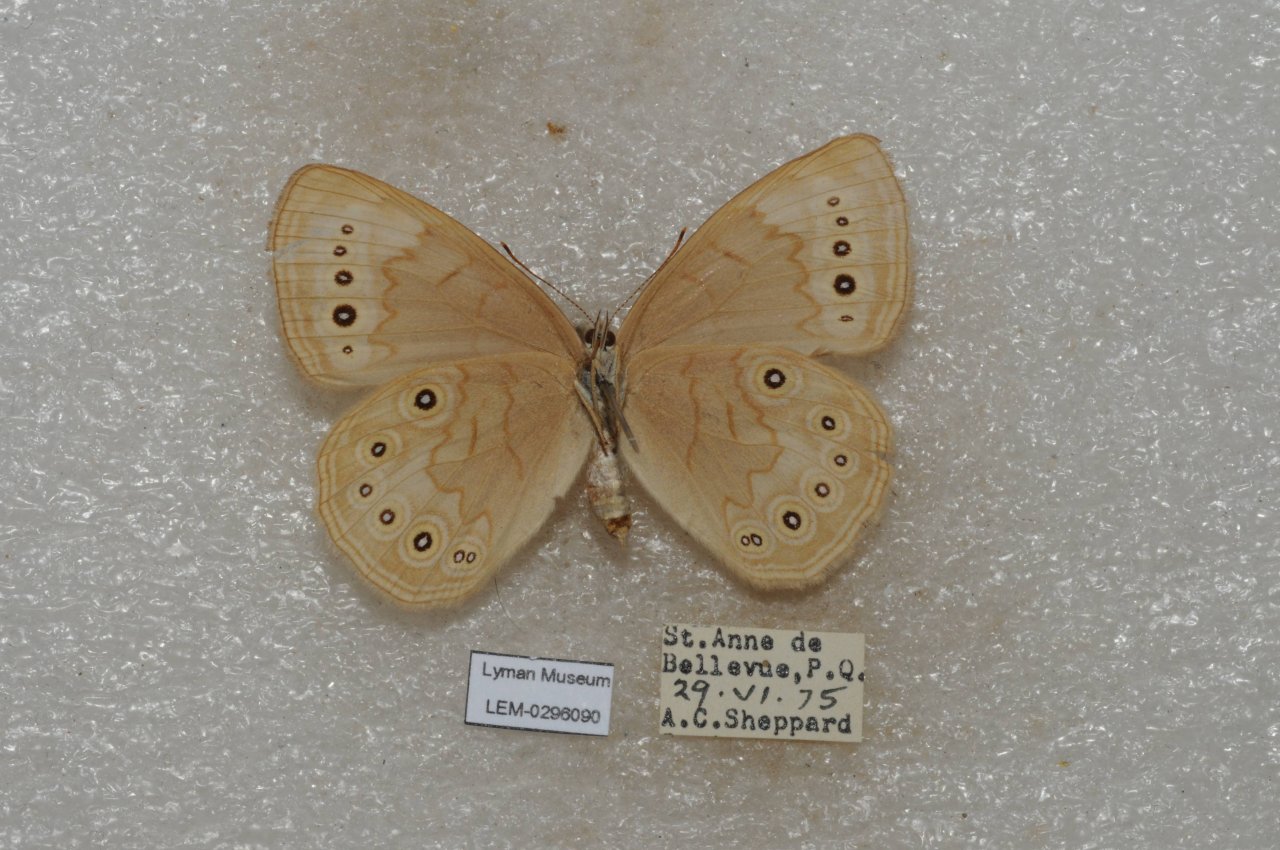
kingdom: Animalia
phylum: Arthropoda
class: Insecta
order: Lepidoptera
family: Nymphalidae
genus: Lethe
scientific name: Lethe eurydice
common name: Eyed Brown
